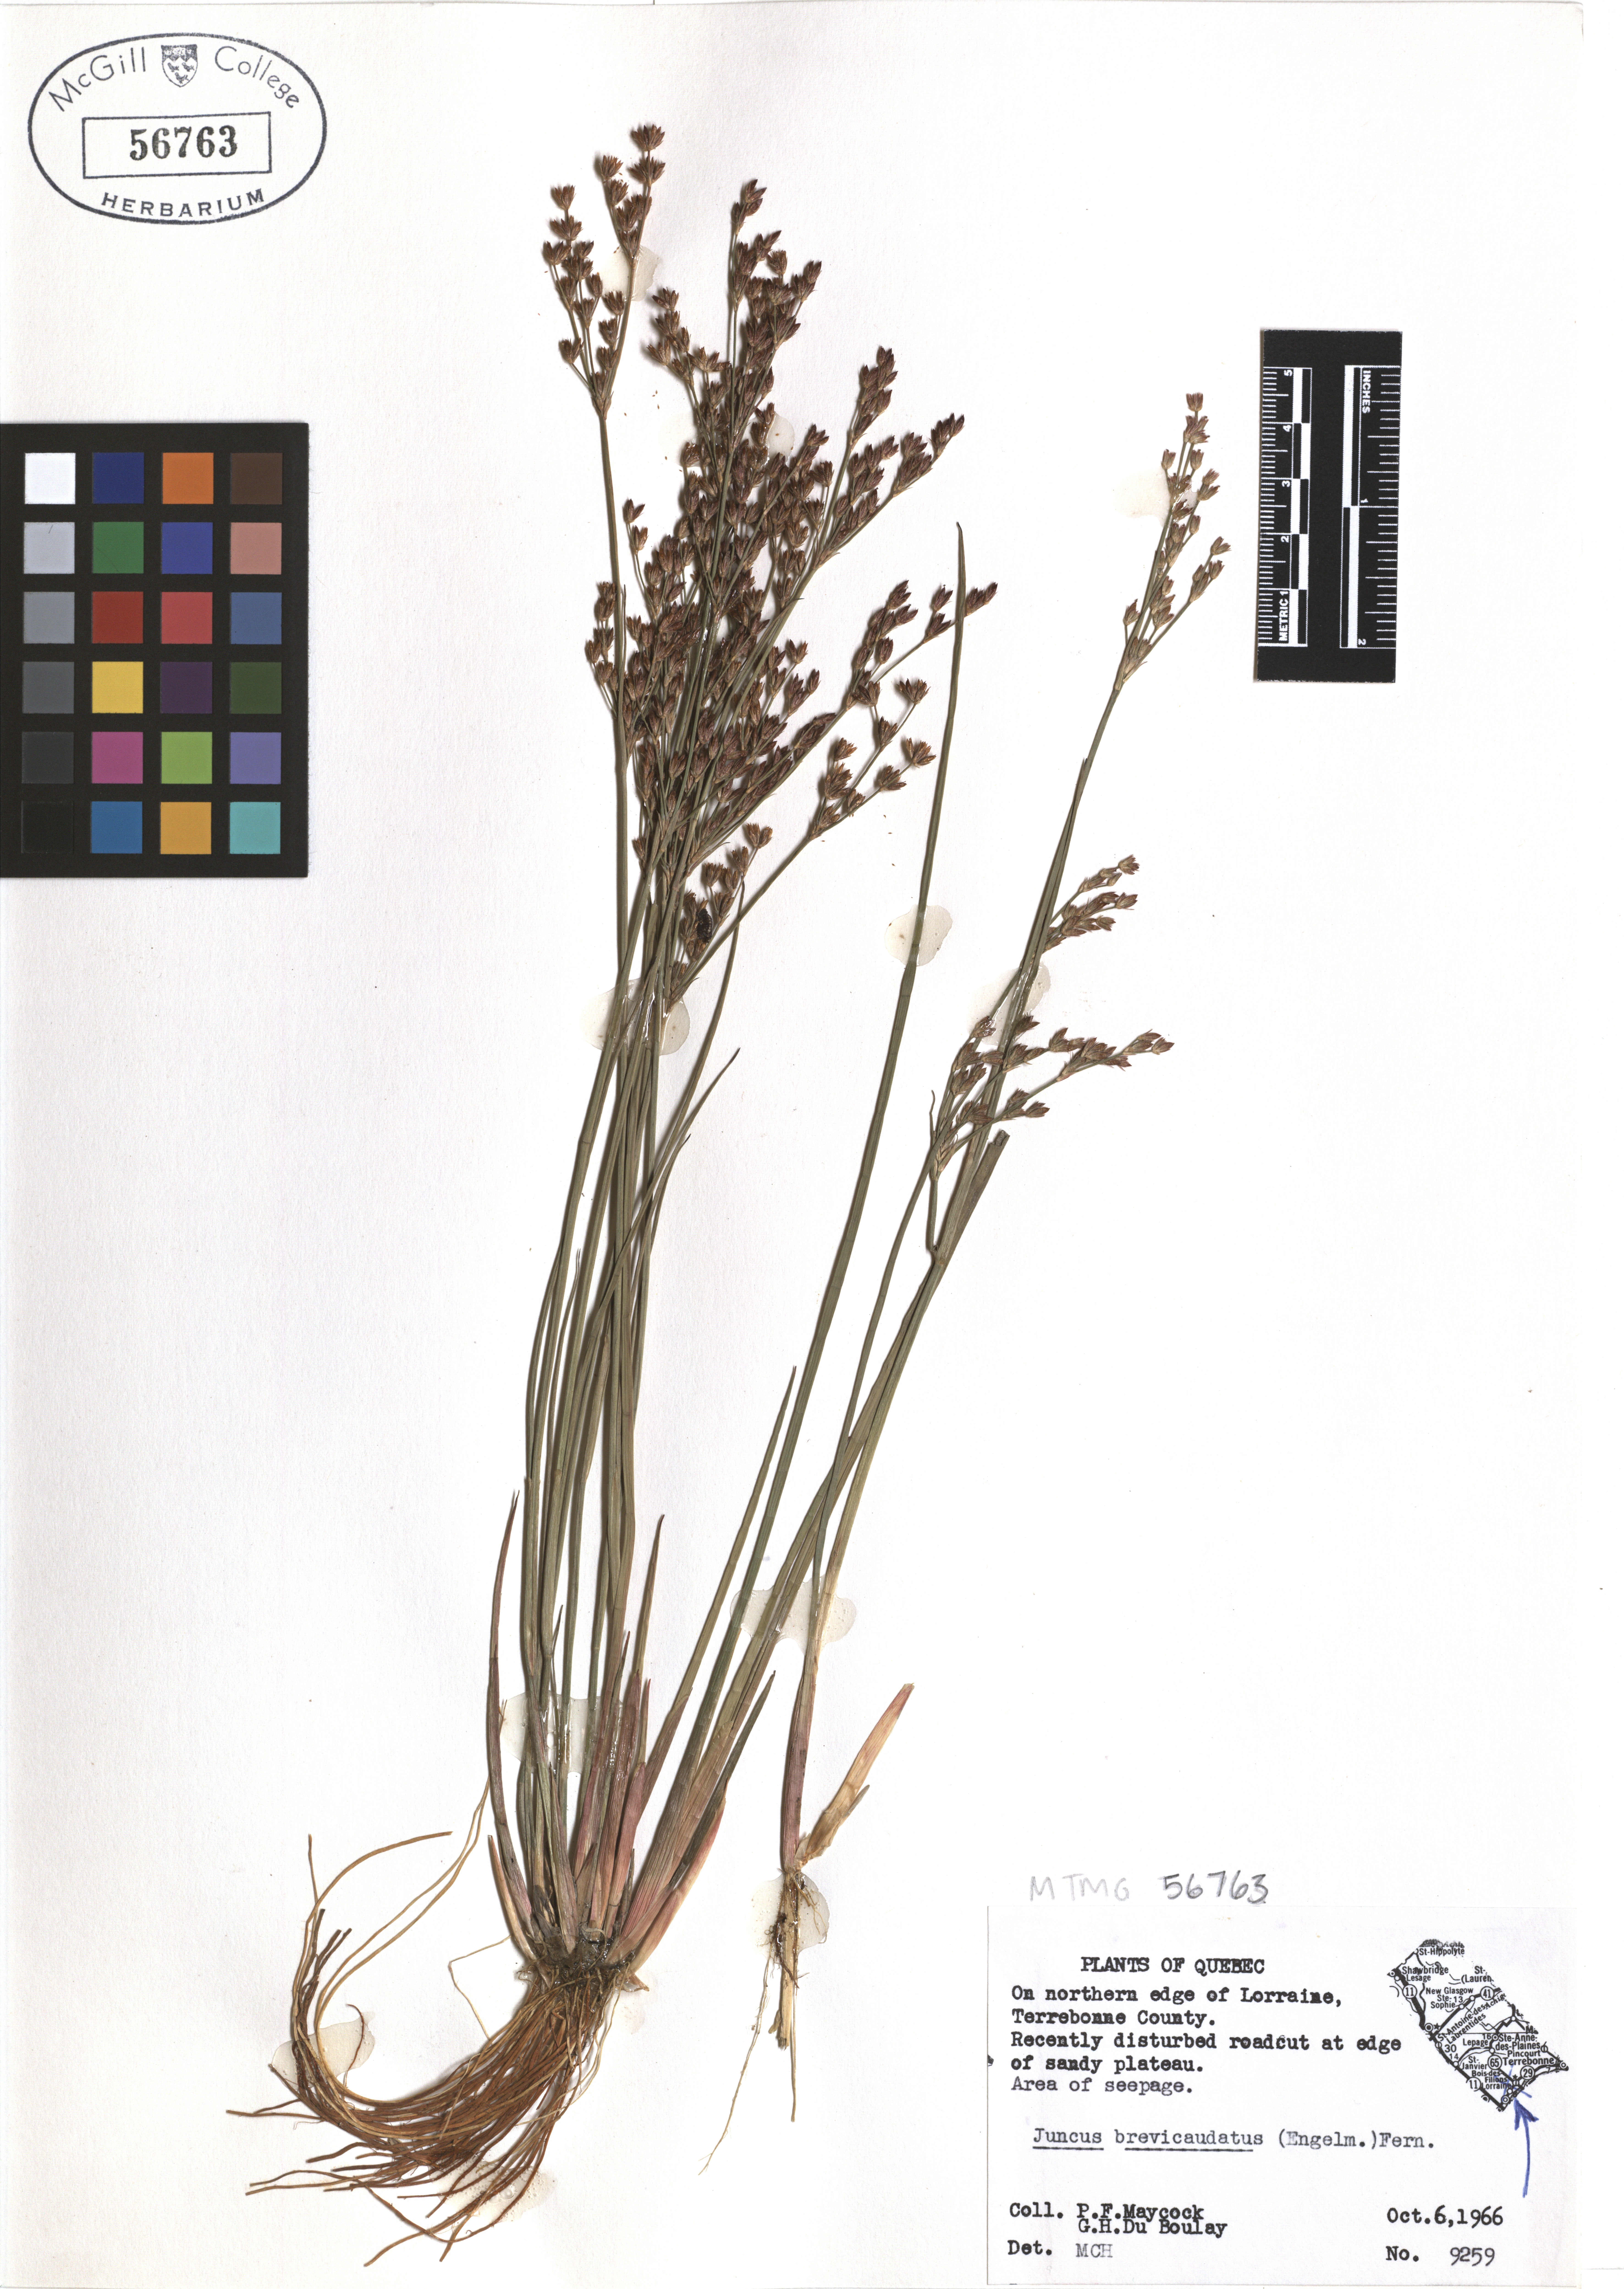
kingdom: Plantae
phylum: Tracheophyta
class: Liliopsida
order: Poales
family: Juncaceae
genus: Juncus
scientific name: Juncus brevicaudatus
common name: Narrow-panicle rush
